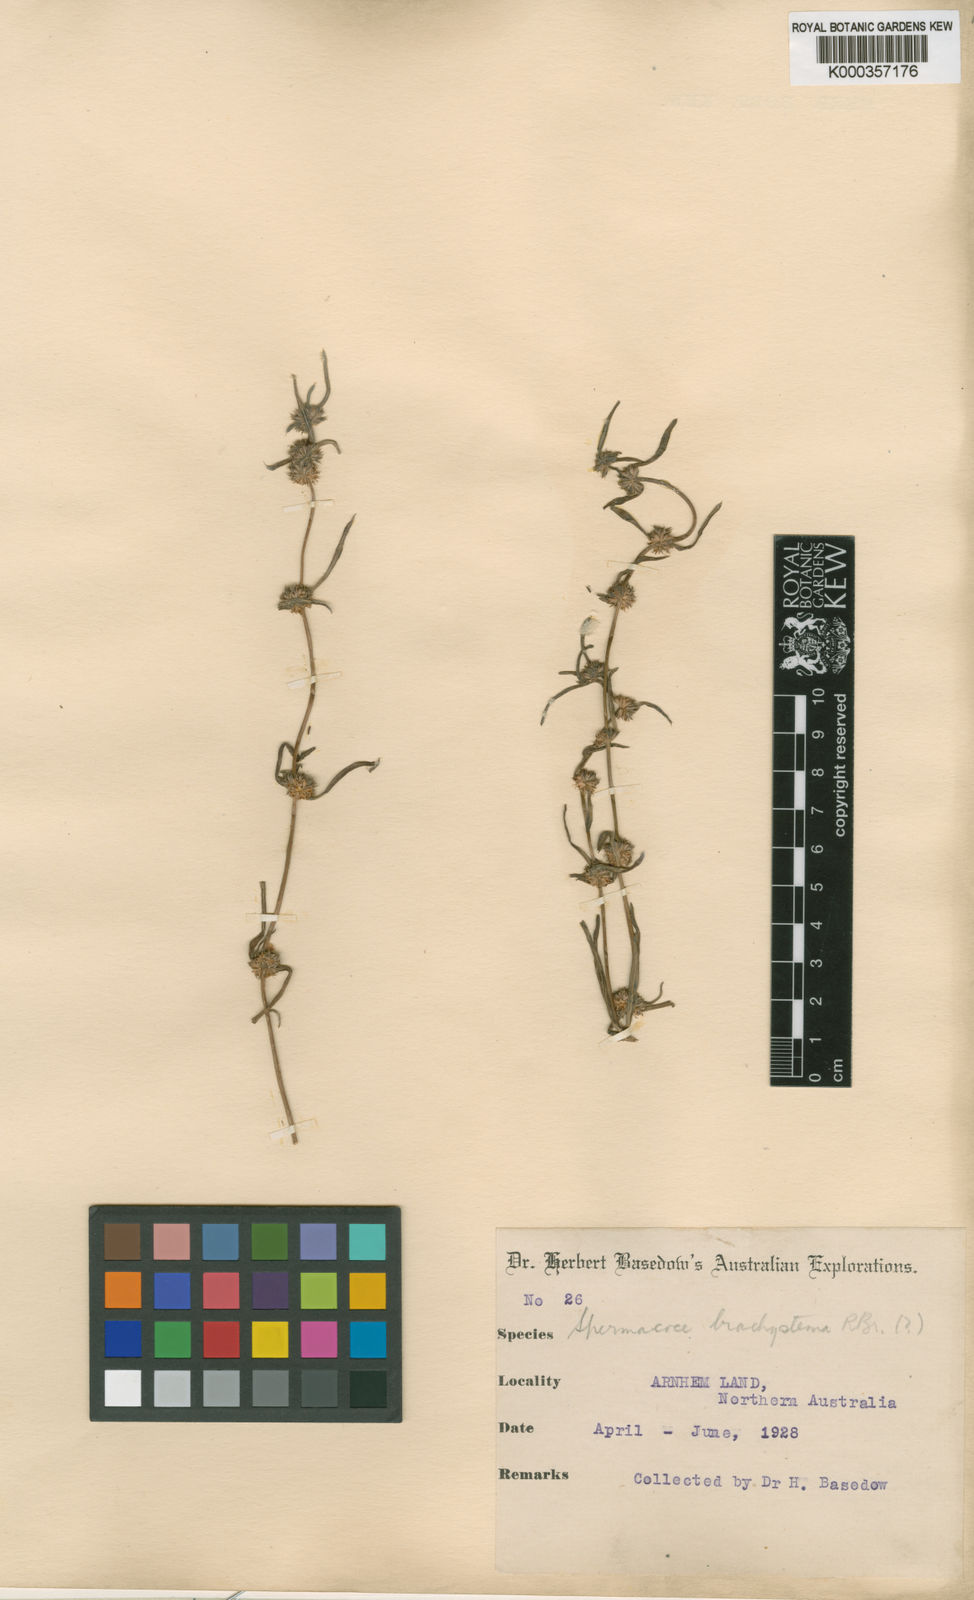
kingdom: Plantae
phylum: Tracheophyta
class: Magnoliopsida
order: Gentianales
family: Rubiaceae
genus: Spermacoce
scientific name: Spermacoce brachystema
